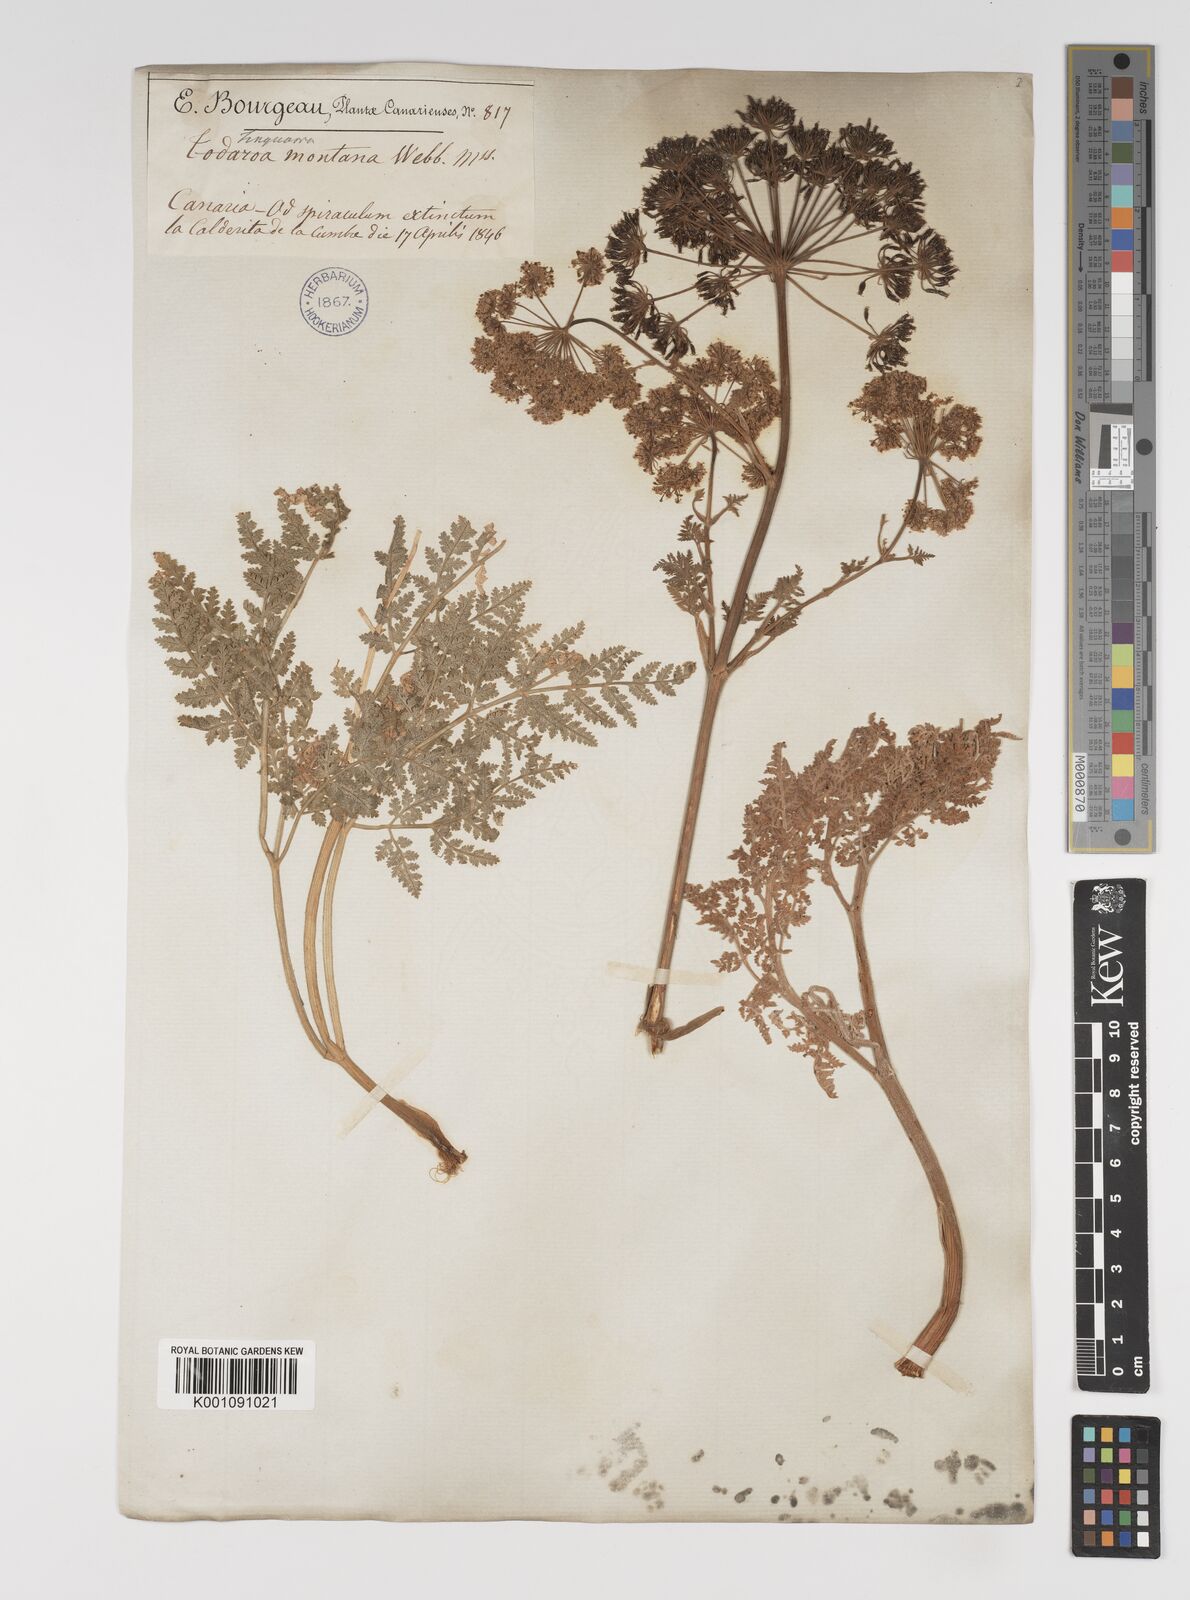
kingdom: Plantae
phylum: Tracheophyta
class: Magnoliopsida
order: Apiales
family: Apiaceae
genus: Athamanta
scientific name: Athamanta montana
